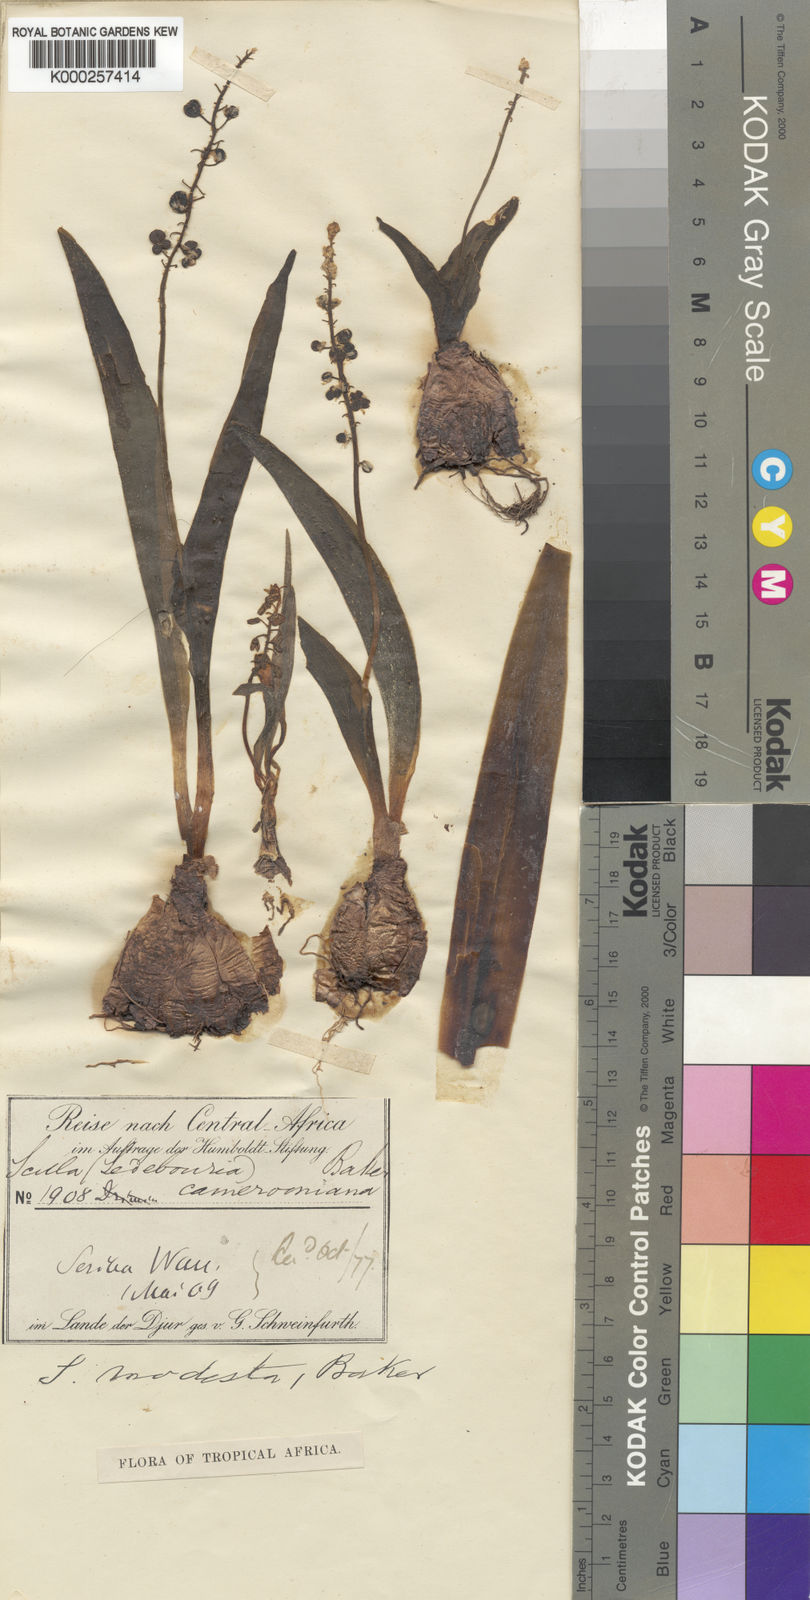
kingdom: Plantae
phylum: Tracheophyta
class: Liliopsida
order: Asparagales
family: Asparagaceae
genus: Scilla
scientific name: Scilla engleri
